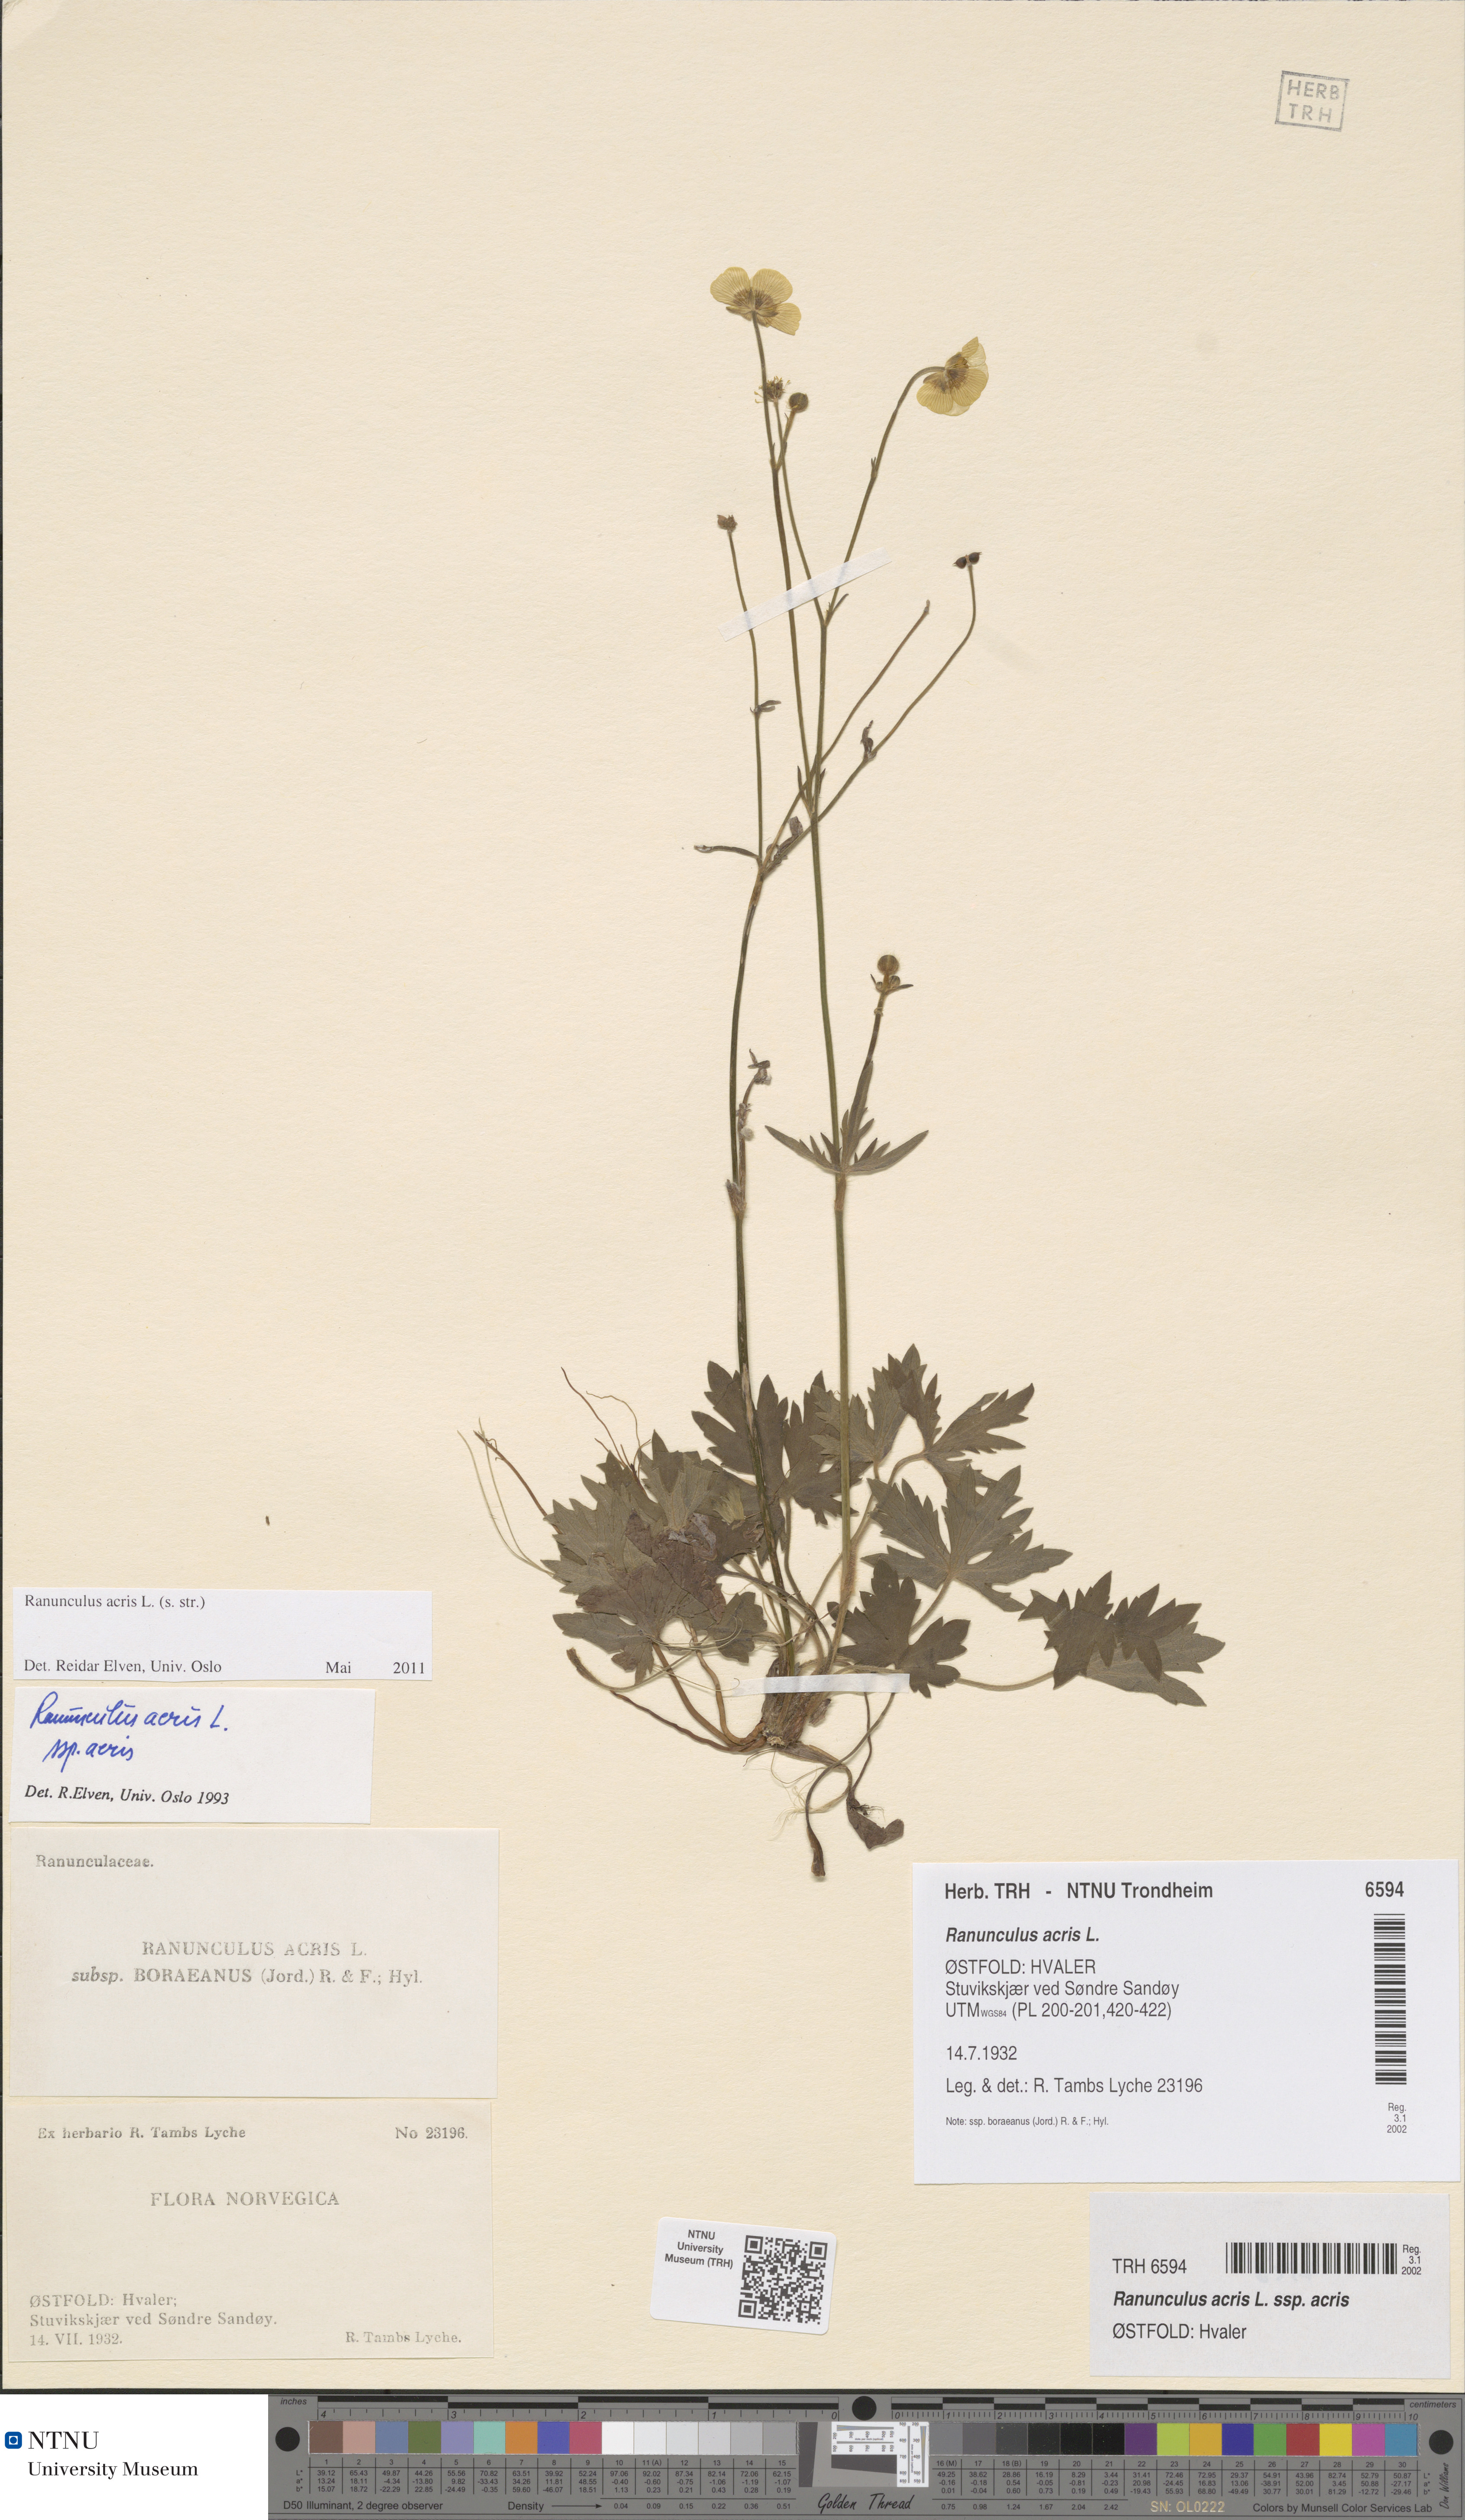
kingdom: Plantae
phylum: Tracheophyta
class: Magnoliopsida
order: Ranunculales
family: Ranunculaceae
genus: Ranunculus
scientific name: Ranunculus acris
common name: Meadow buttercup
